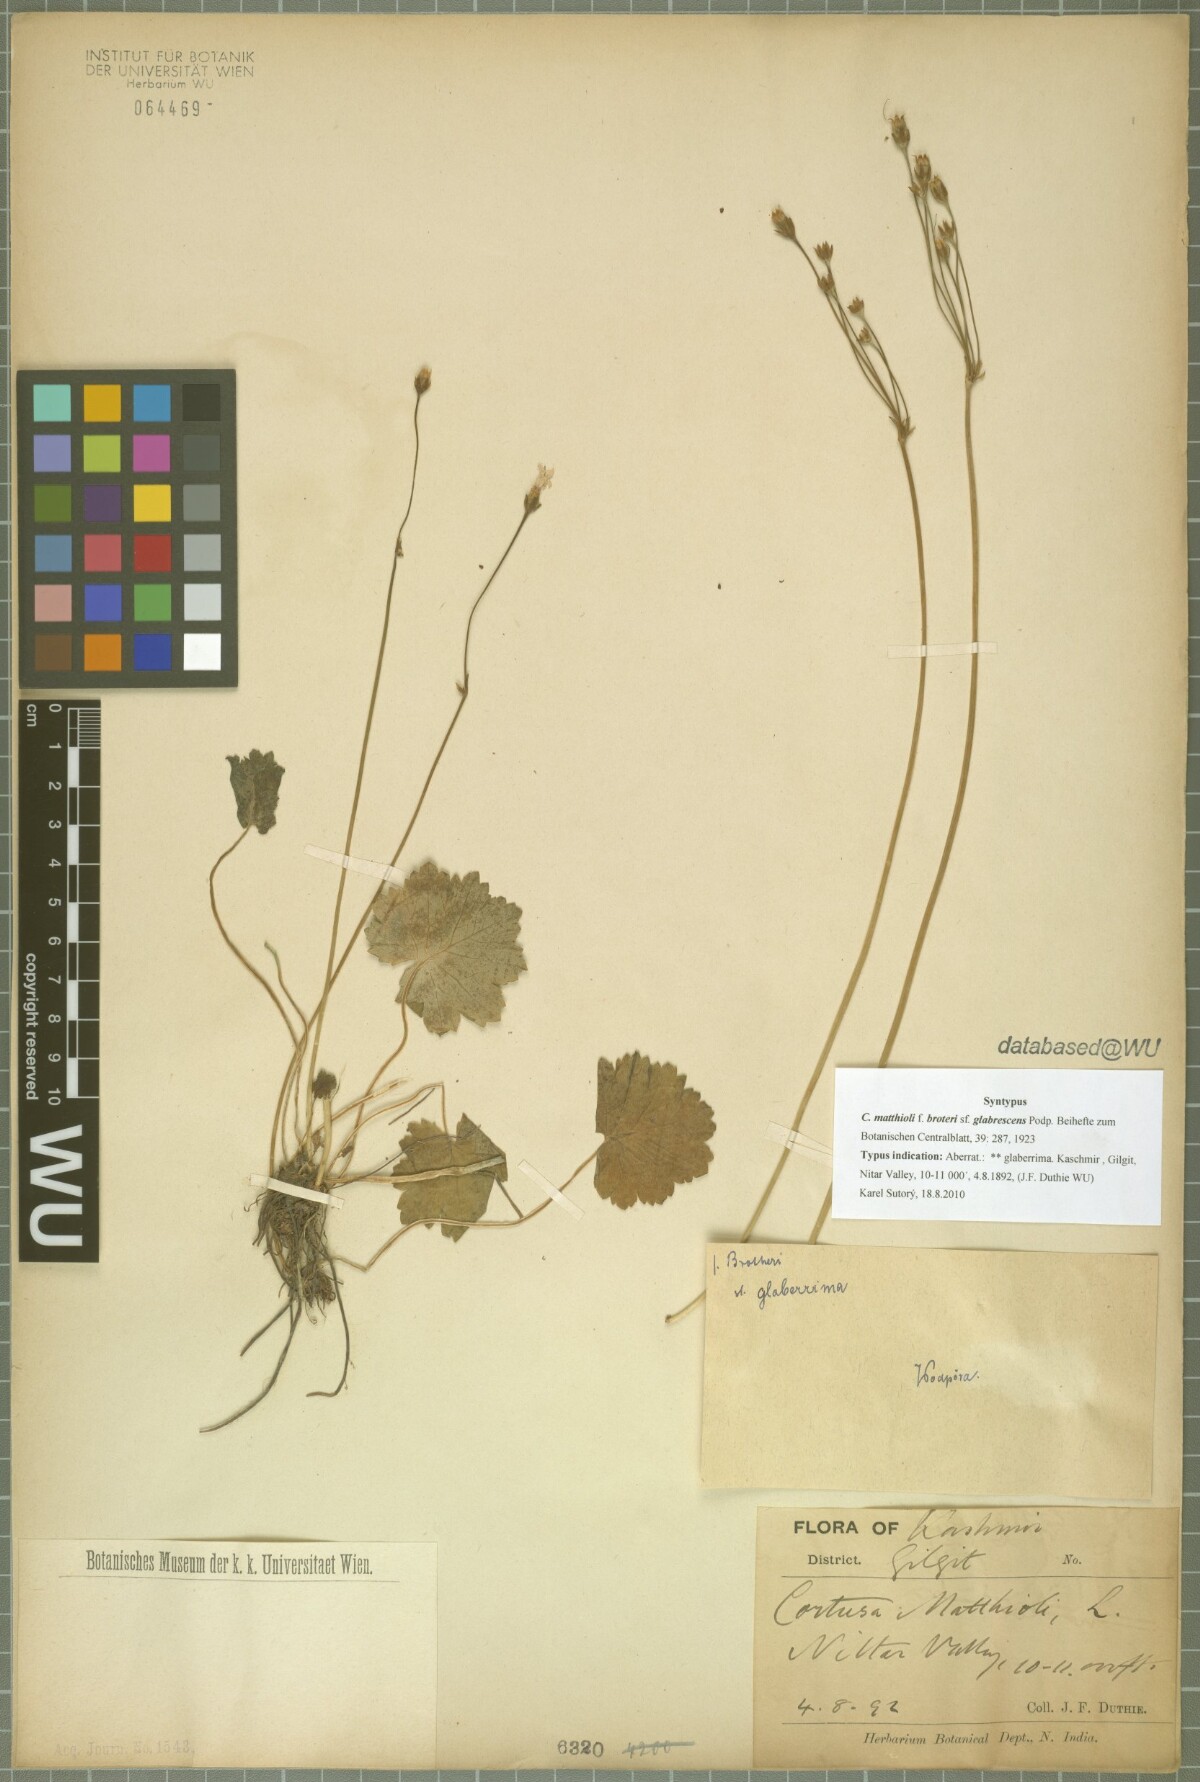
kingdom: Plantae
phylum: Tracheophyta
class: Magnoliopsida
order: Ericales
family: Primulaceae
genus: Primula
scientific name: Primula matthioli
